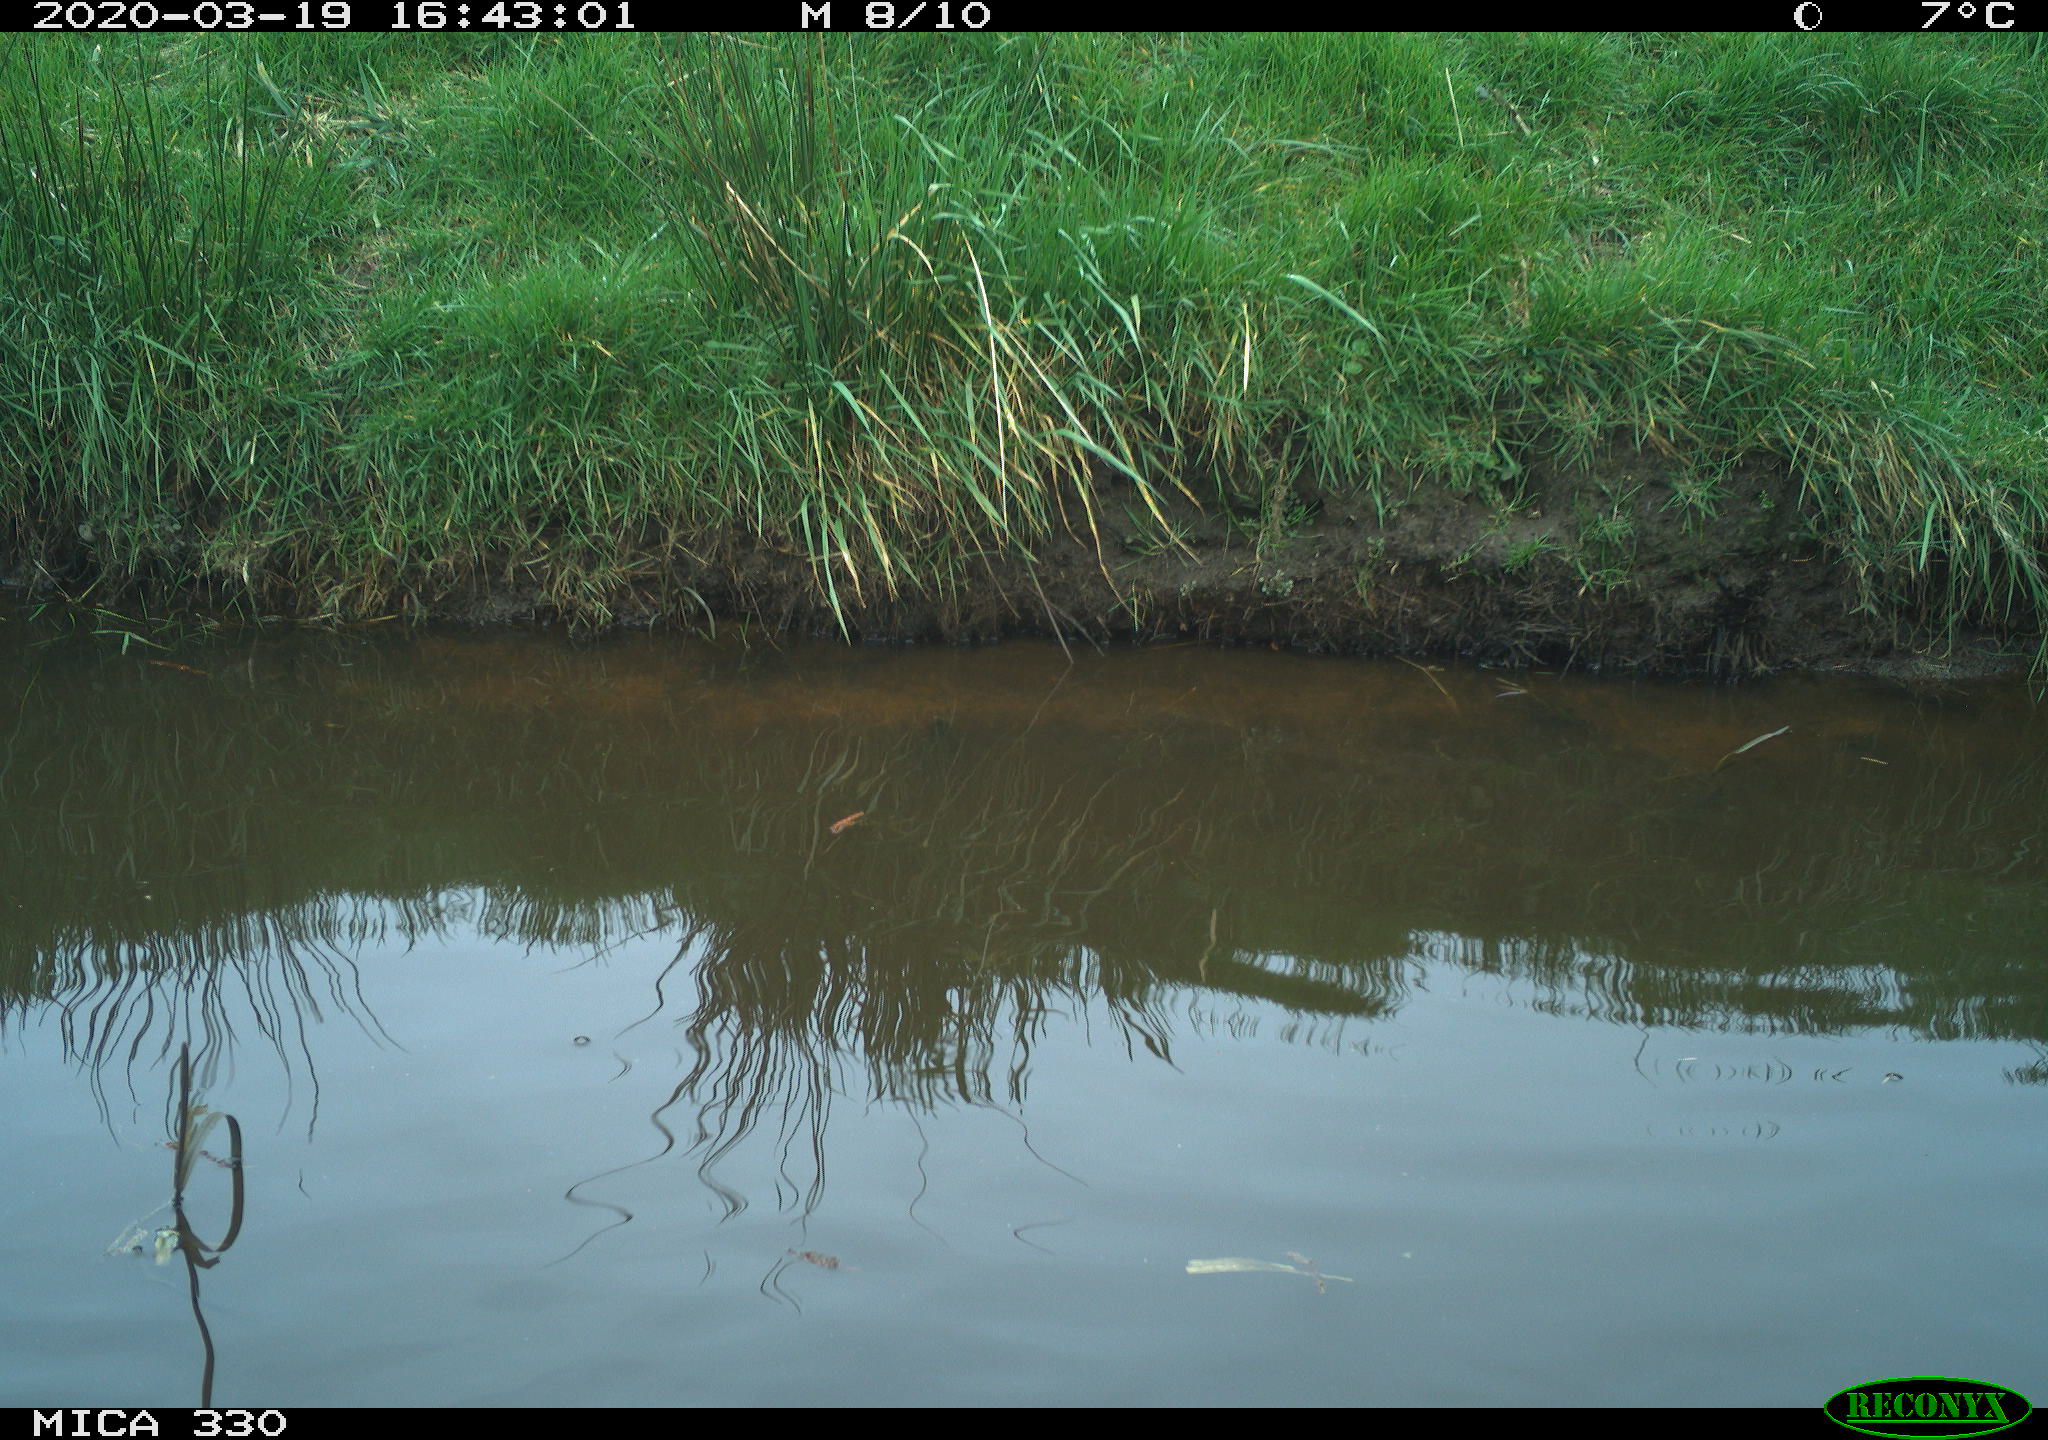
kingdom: Animalia
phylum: Chordata
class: Aves
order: Gruiformes
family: Rallidae
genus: Gallinula
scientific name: Gallinula chloropus
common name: Common moorhen
